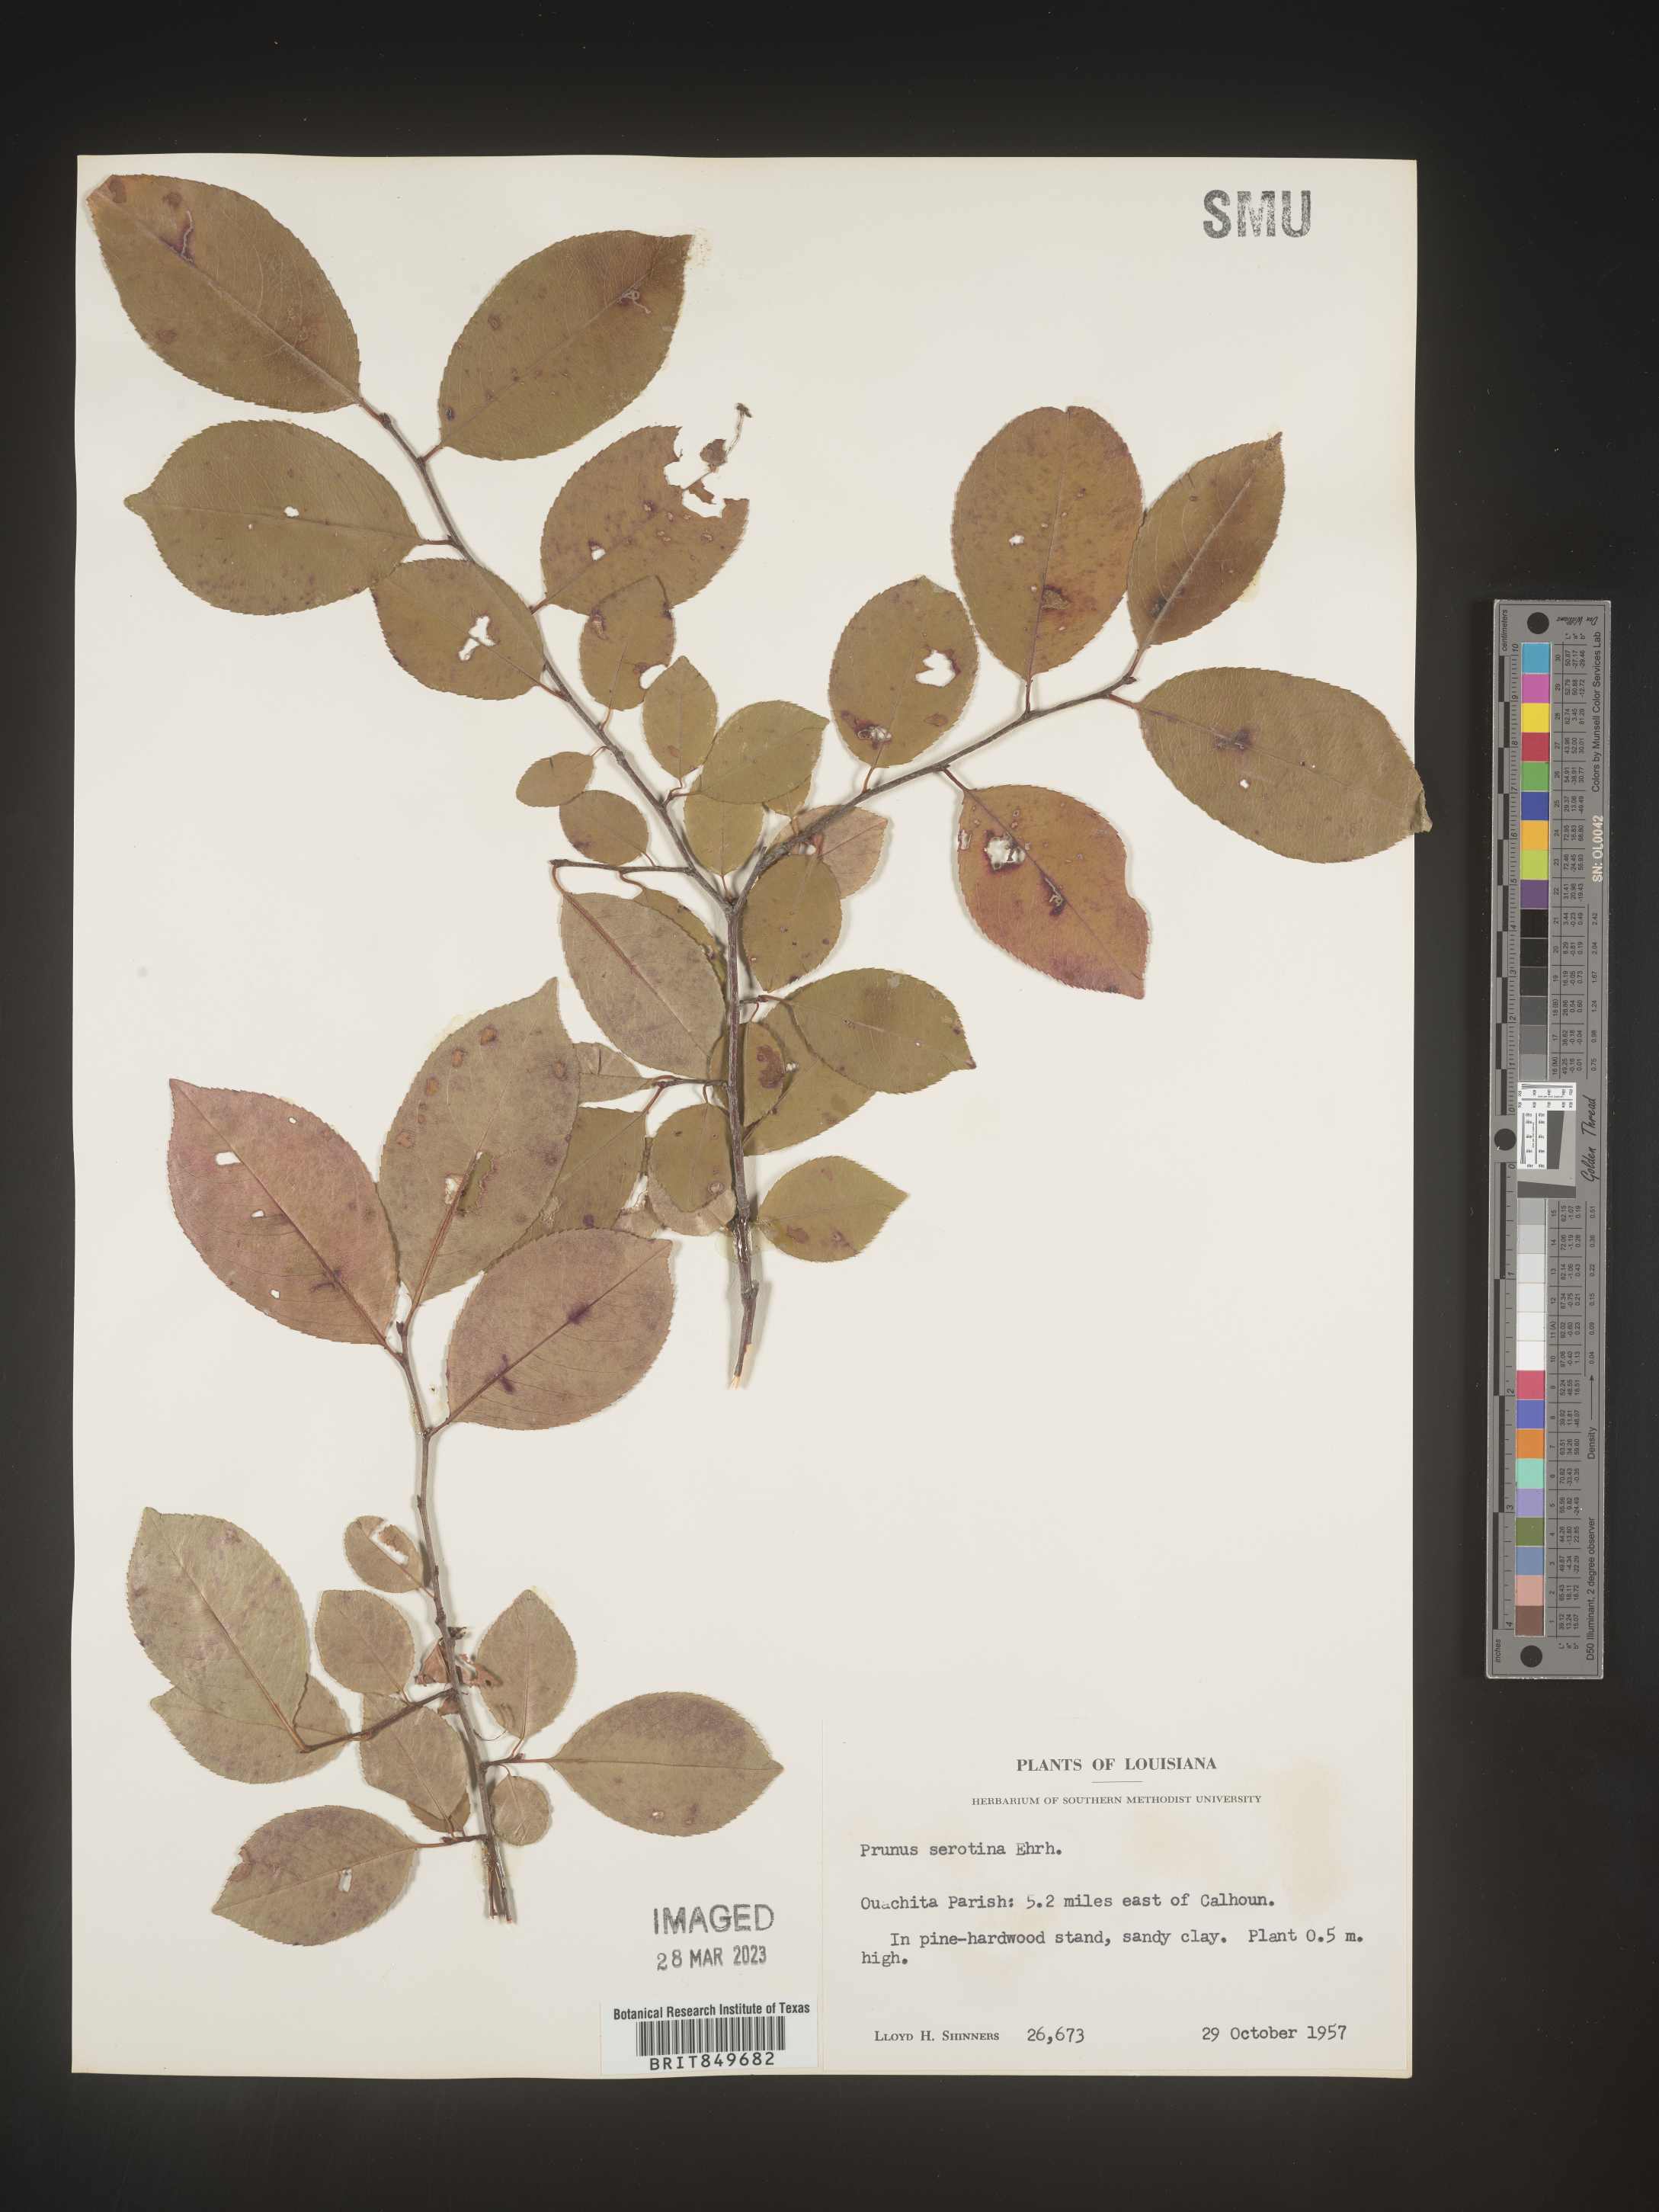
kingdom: Plantae
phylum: Tracheophyta
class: Magnoliopsida
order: Rosales
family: Rosaceae
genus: Prunus
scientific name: Prunus serotina
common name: Black cherry
